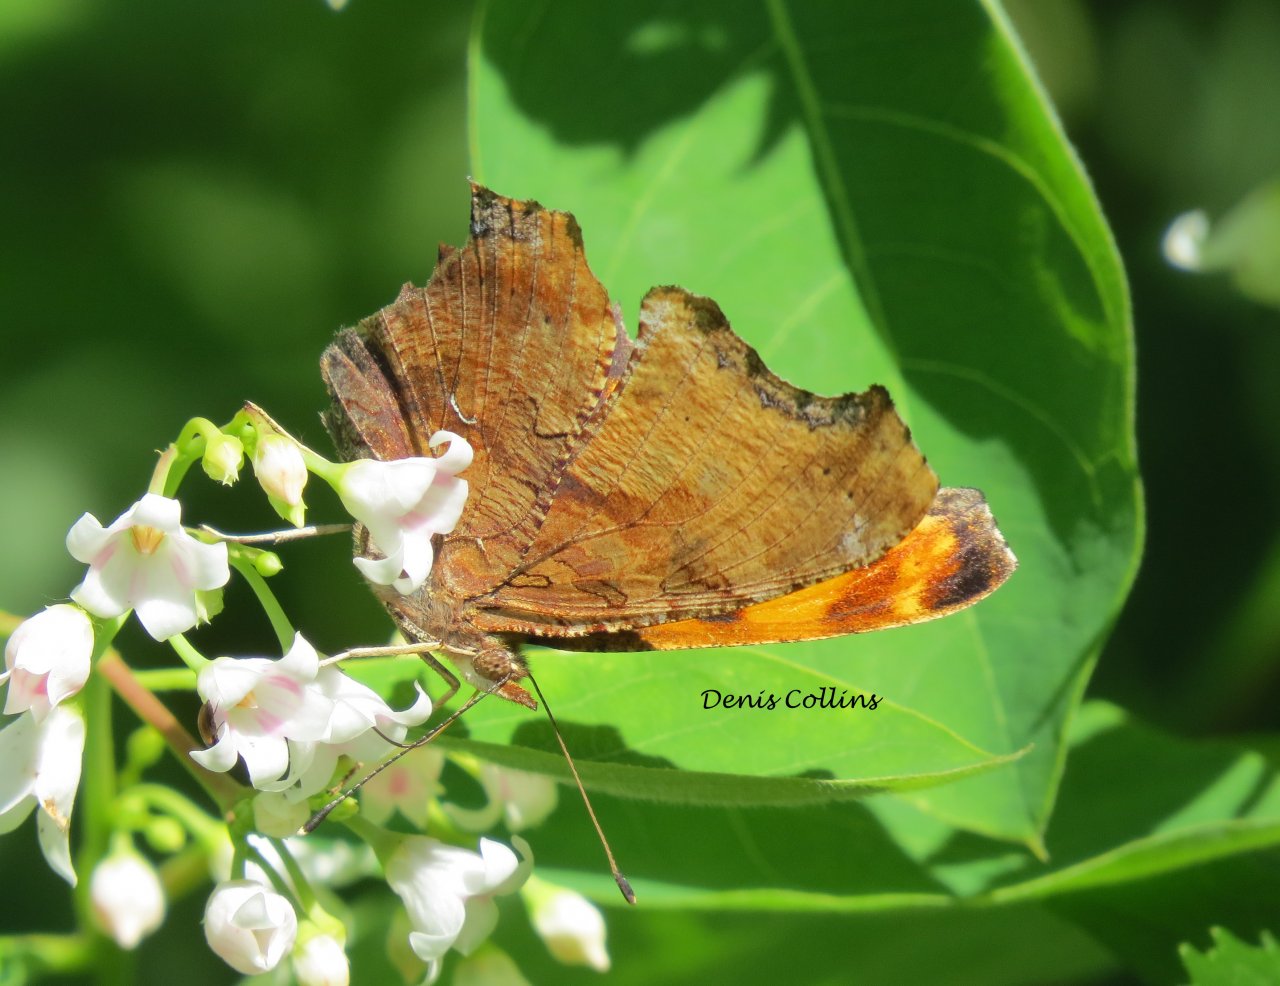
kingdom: Animalia
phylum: Arthropoda
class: Insecta
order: Lepidoptera
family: Nymphalidae
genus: Polygonia
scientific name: Polygonia comma
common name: Eastern Comma
